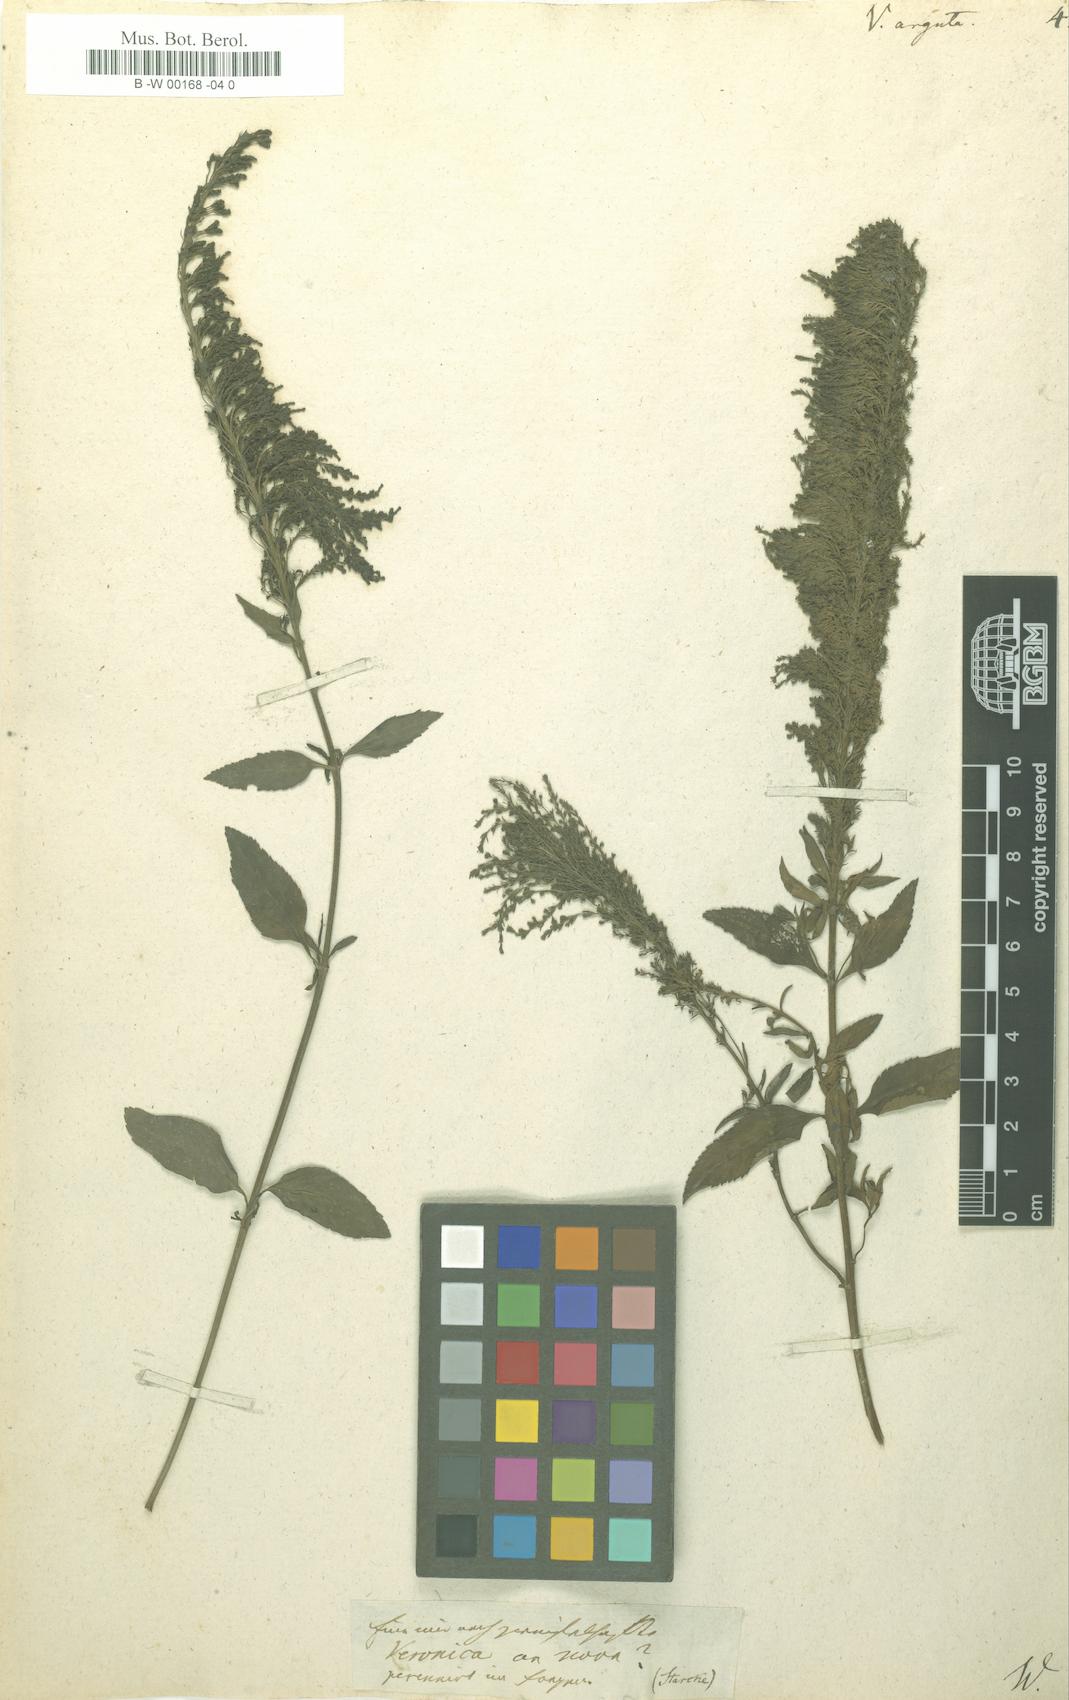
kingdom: Plantae
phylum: Tracheophyta
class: Magnoliopsida
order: Lamiales
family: Plantaginaceae
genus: Veronica
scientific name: Veronica
